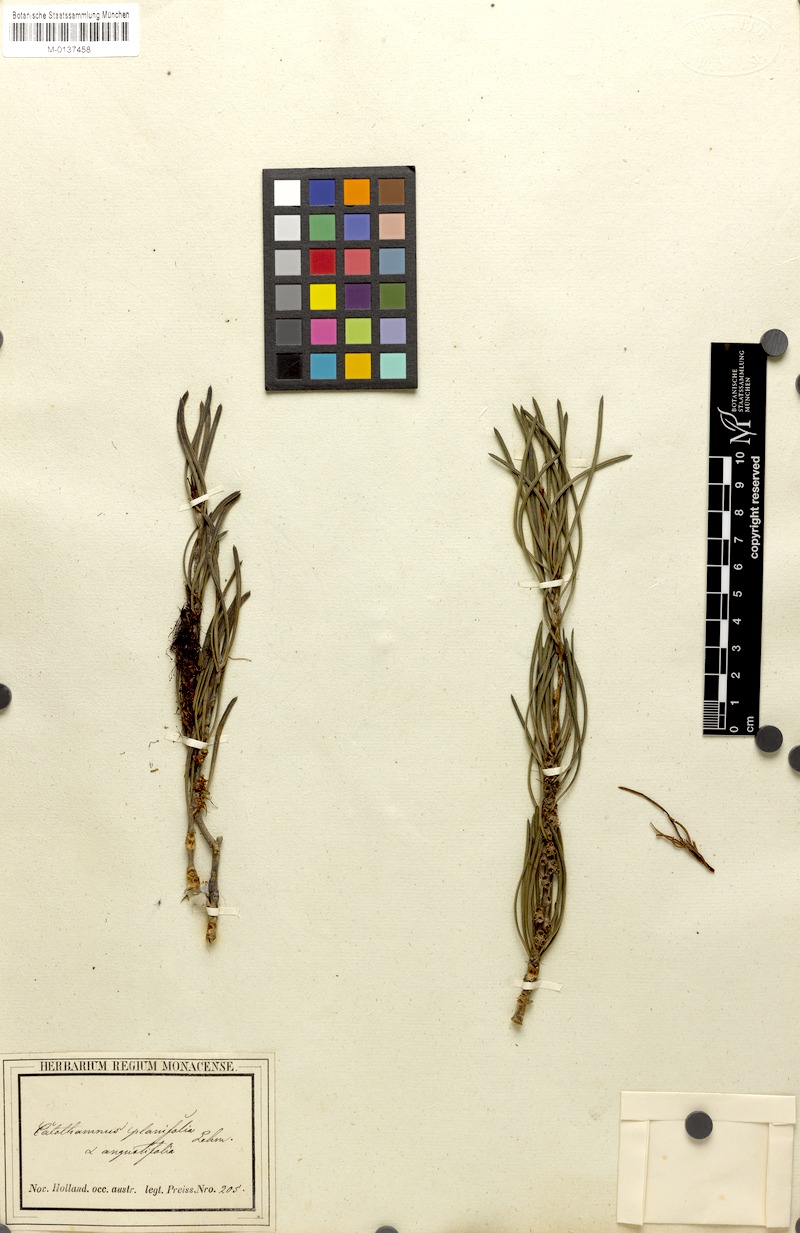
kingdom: Plantae
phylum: Tracheophyta
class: Magnoliopsida
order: Myrtales
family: Myrtaceae
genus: Melaleuca
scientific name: Melaleuca planifolia
